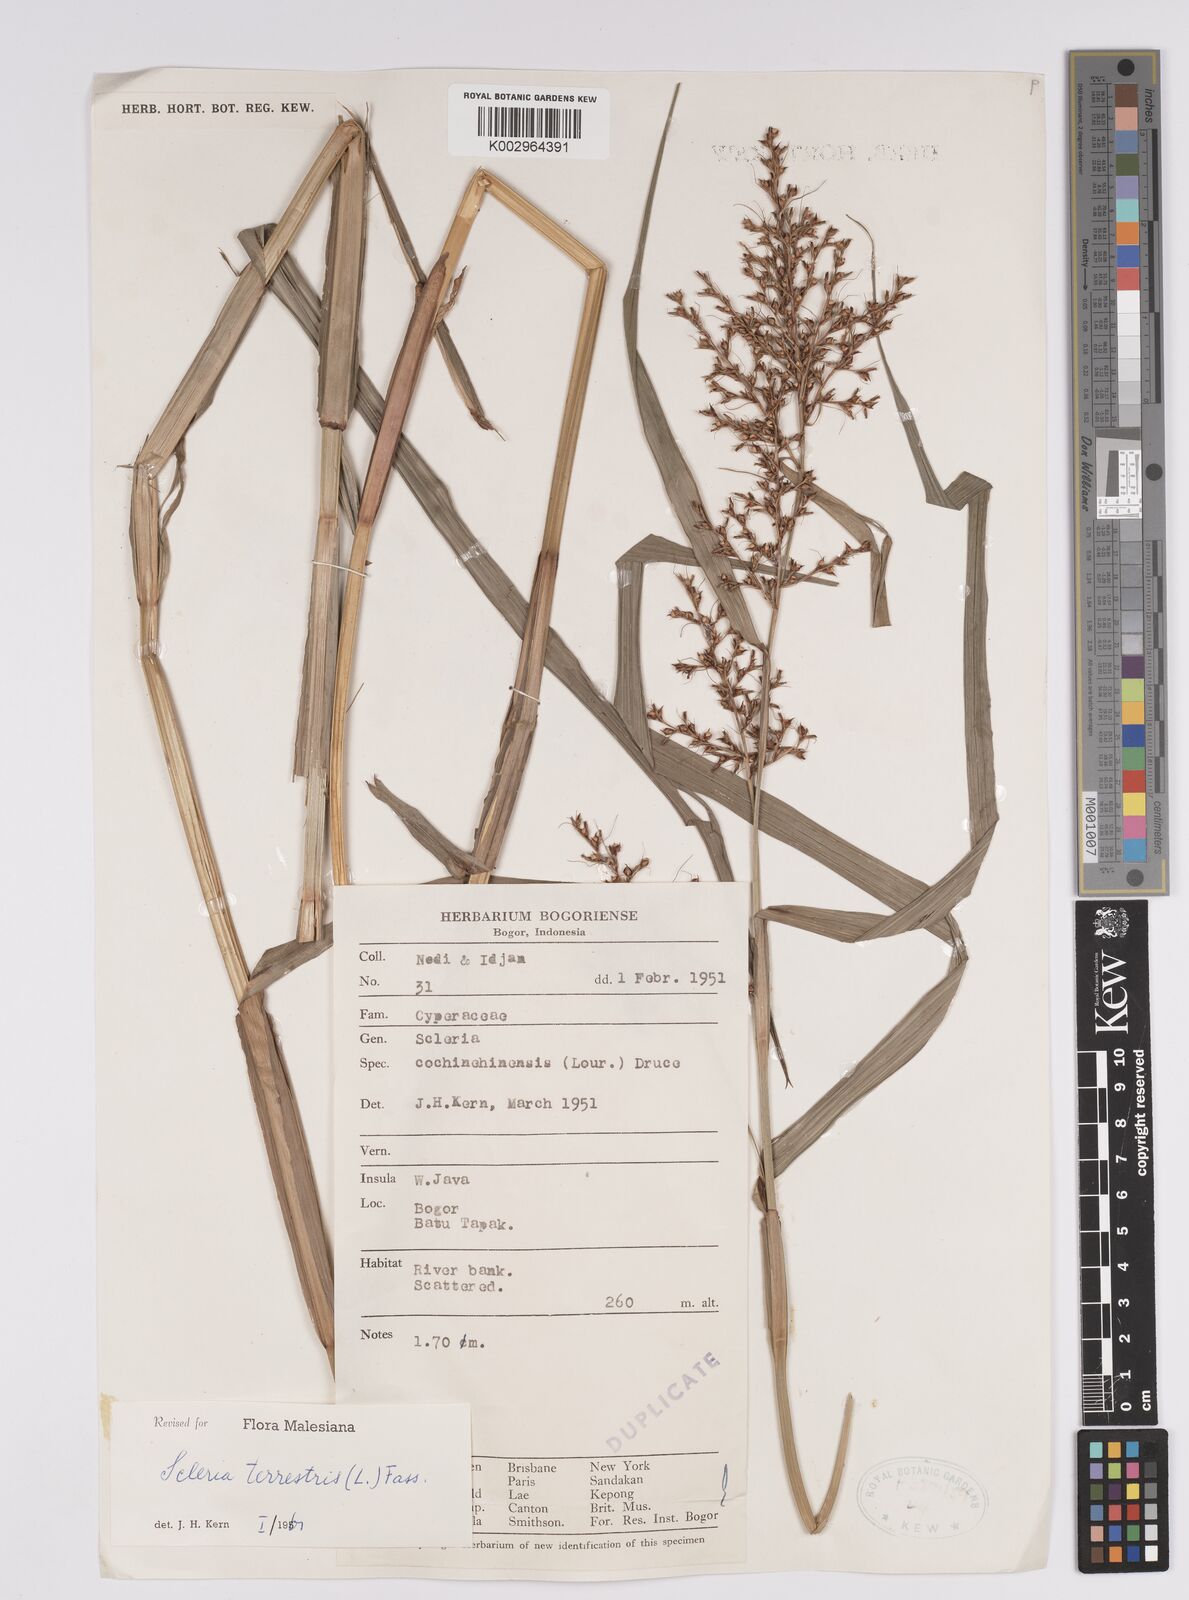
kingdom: Plantae
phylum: Tracheophyta
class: Liliopsida
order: Poales
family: Cyperaceae
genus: Scleria
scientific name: Scleria terrestris
